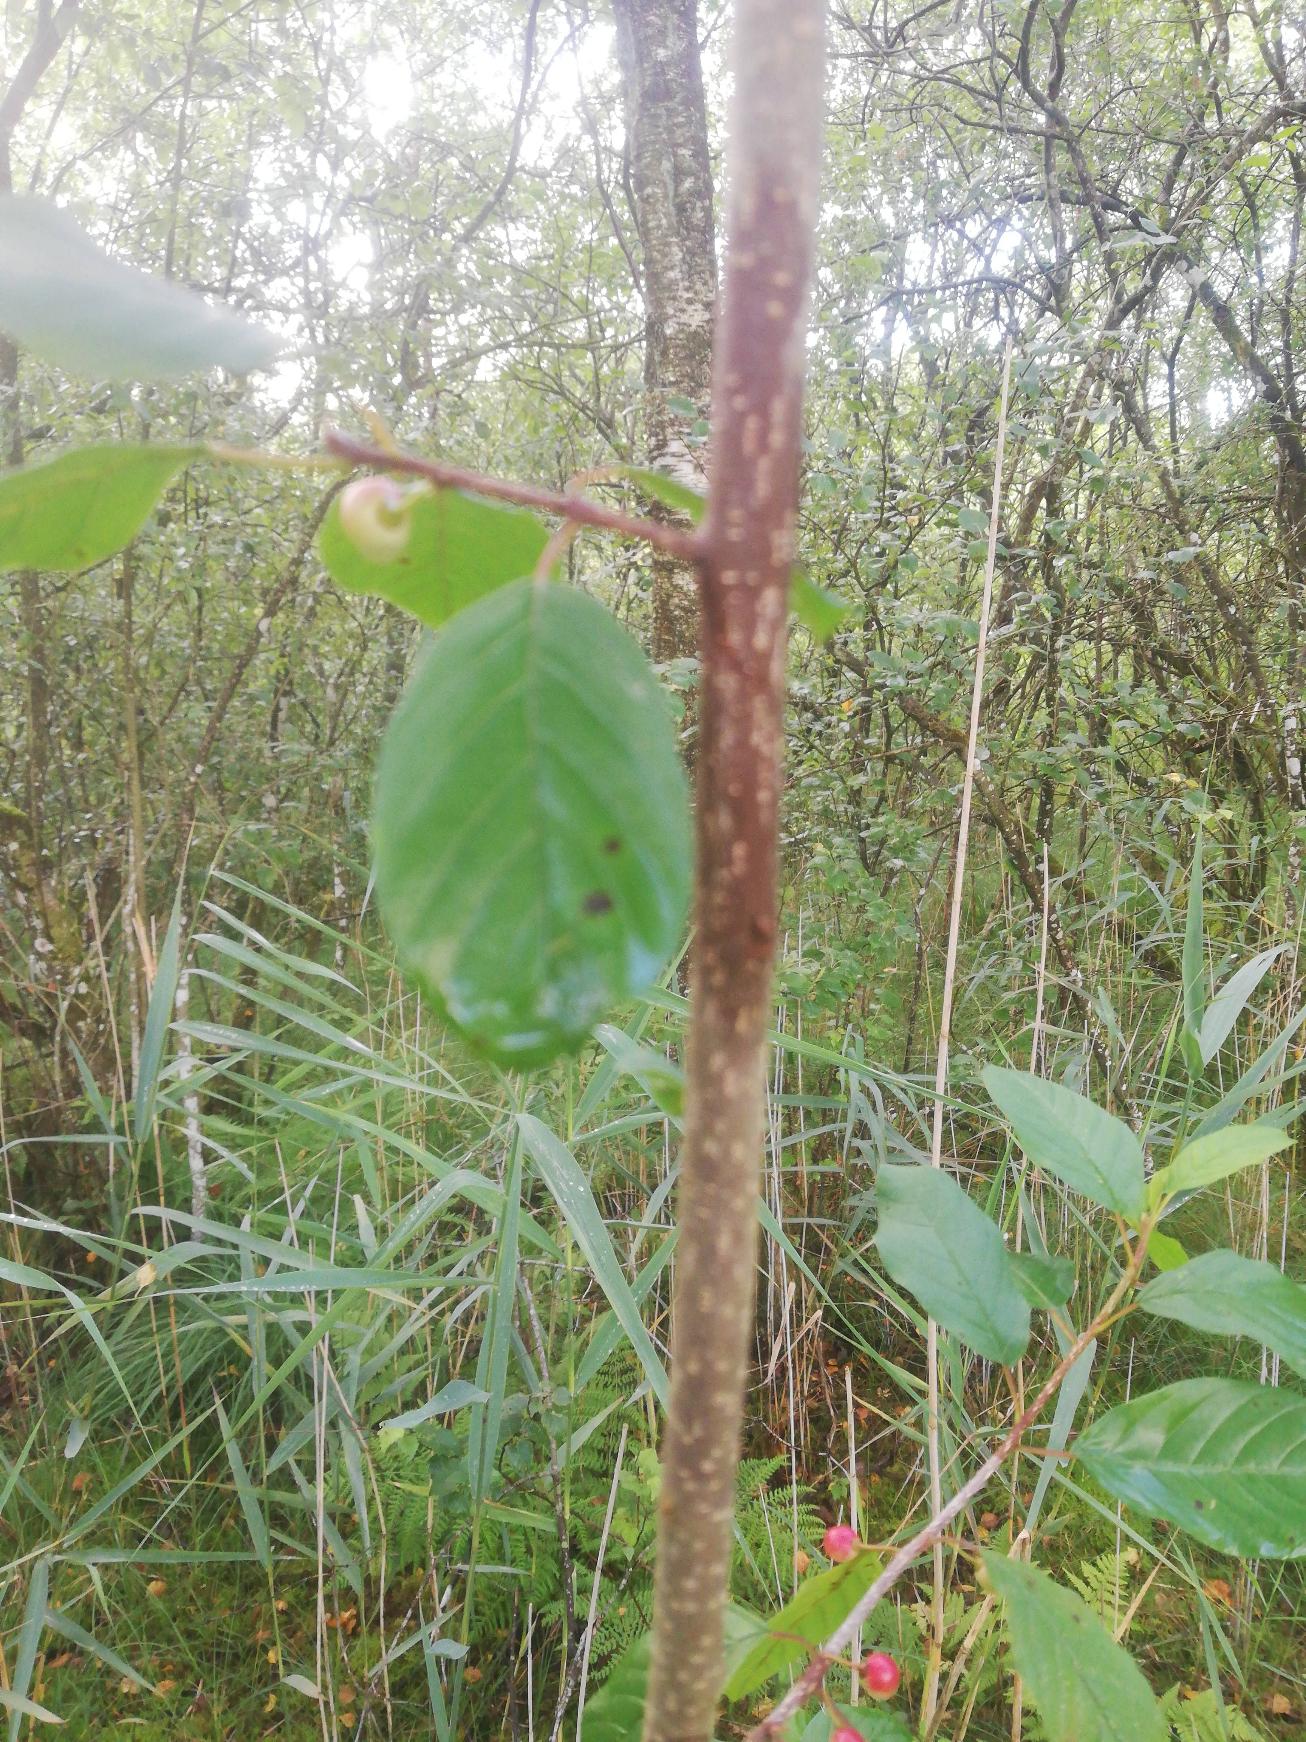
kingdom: Plantae
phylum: Tracheophyta
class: Magnoliopsida
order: Rosales
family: Rhamnaceae
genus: Frangula
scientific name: Frangula alnus
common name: Tørst
